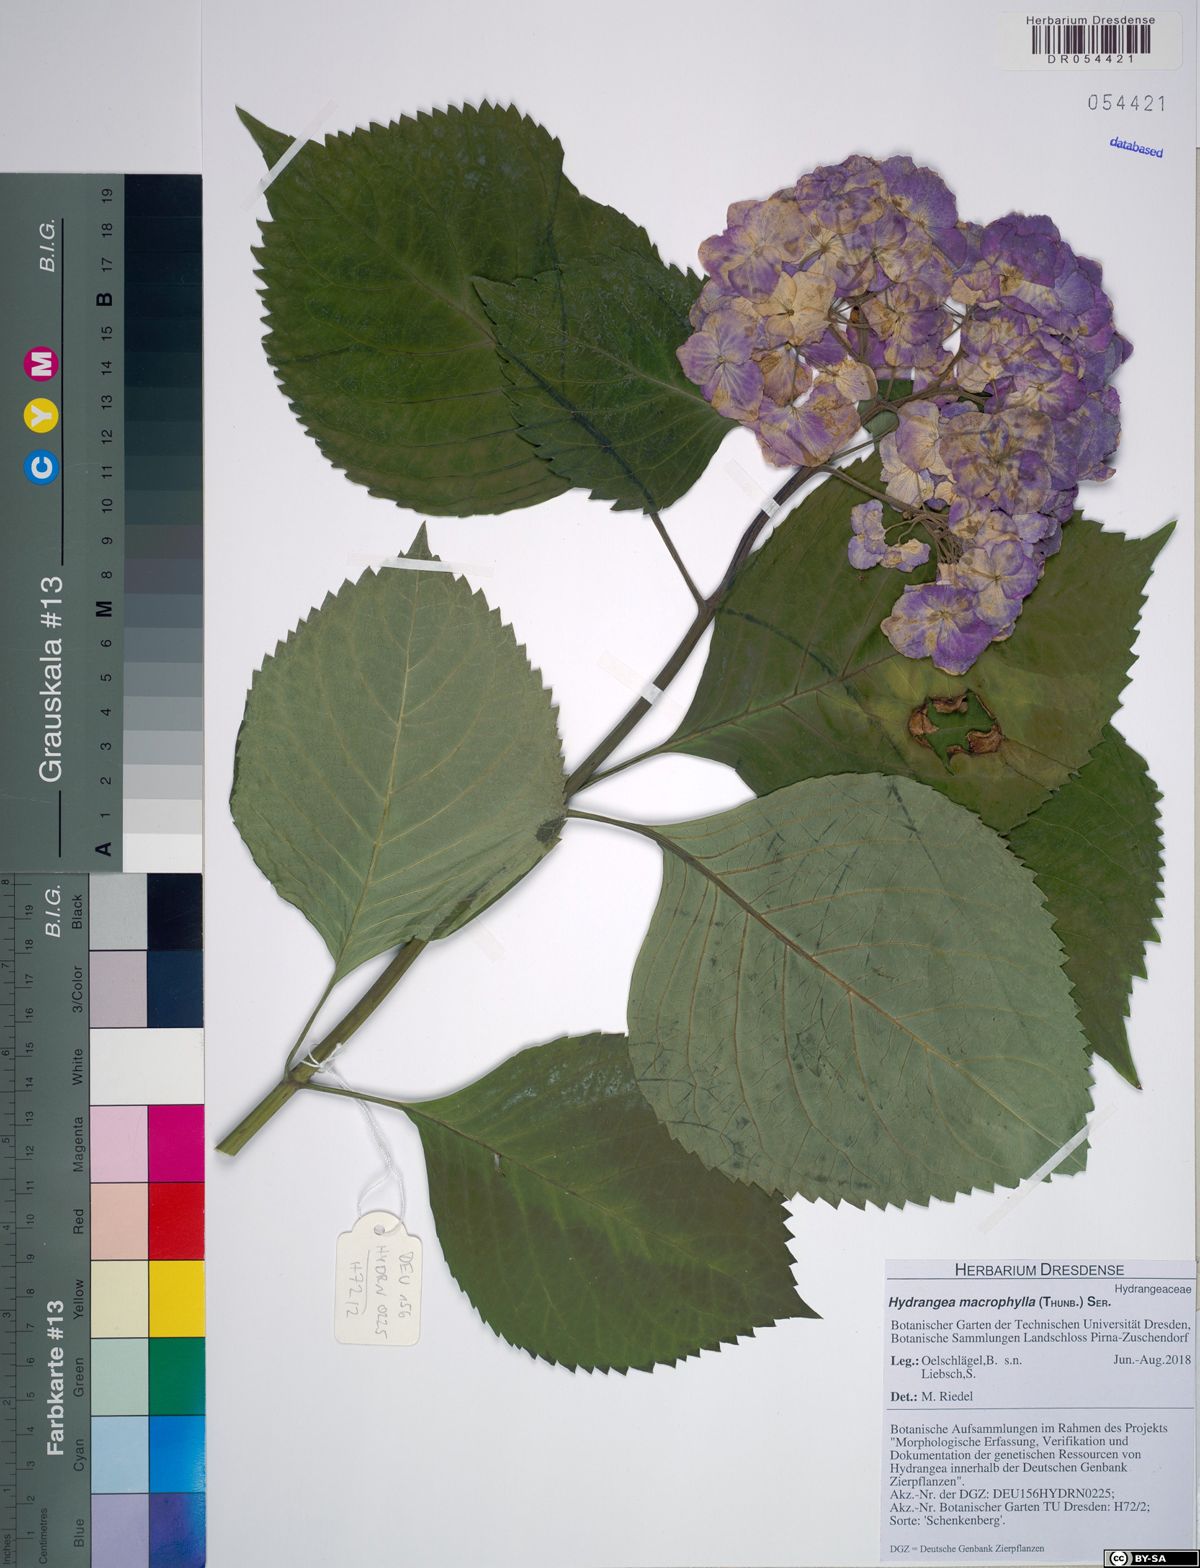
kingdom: Plantae
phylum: Tracheophyta
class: Magnoliopsida
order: Cornales
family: Hydrangeaceae
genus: Hydrangea
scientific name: Hydrangea macrophylla
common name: Hydrangea
